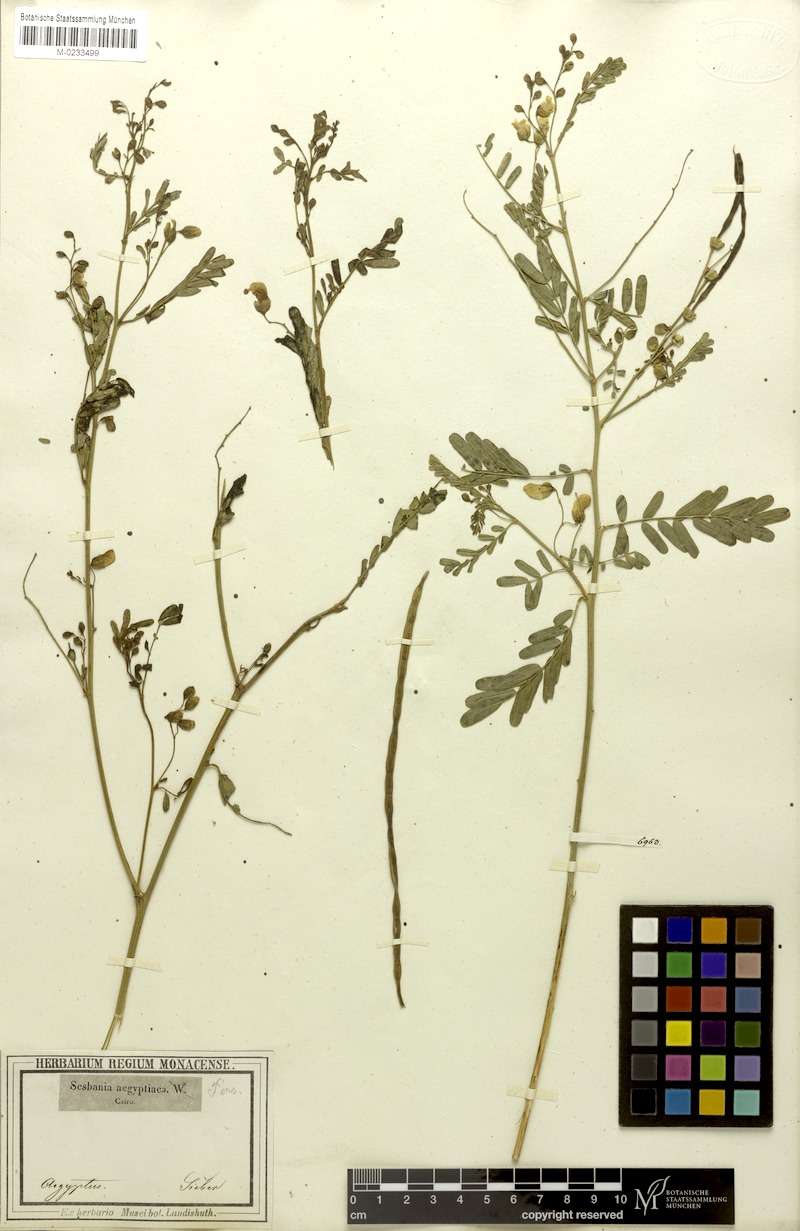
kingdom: Plantae
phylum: Tracheophyta
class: Magnoliopsida
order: Fabales
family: Fabaceae
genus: Sesbania
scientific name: Sesbania sesban
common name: Egyptian sesban
